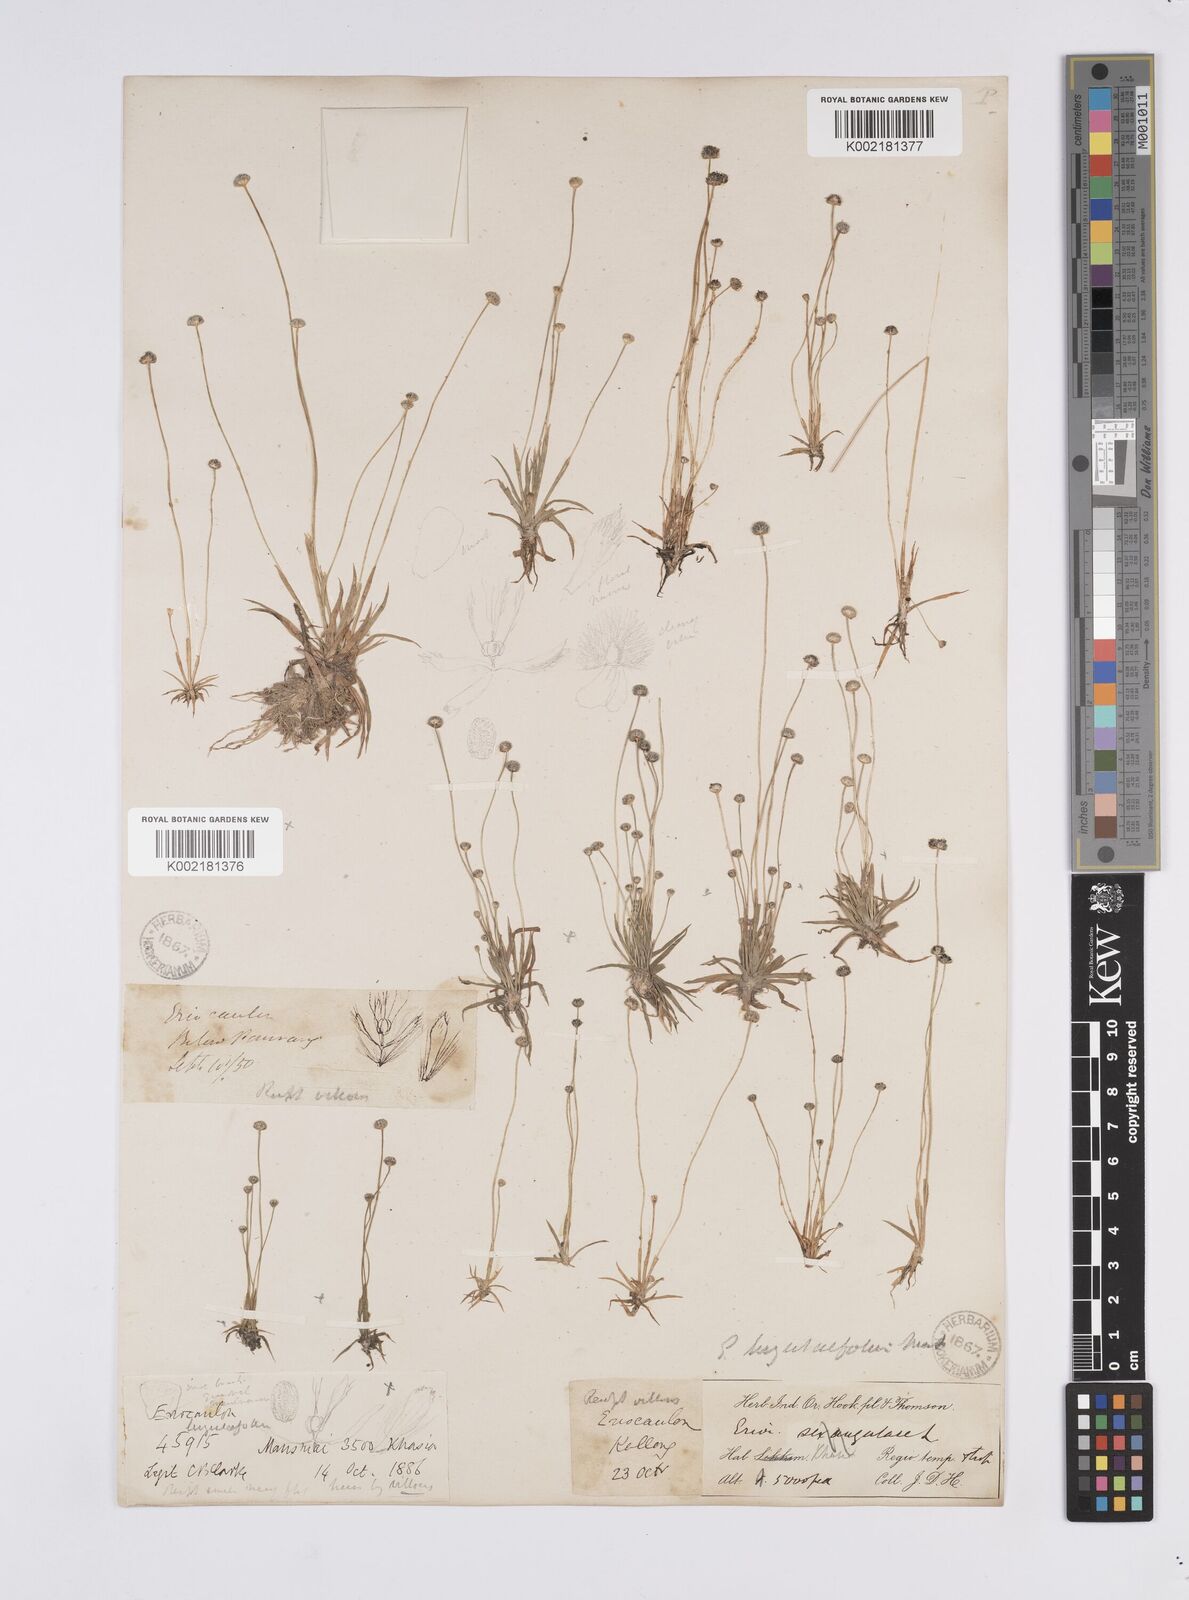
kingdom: Plantae
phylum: Tracheophyta
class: Liliopsida
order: Poales
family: Eriocaulaceae
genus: Eriocaulon
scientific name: Eriocaulon nepalense
